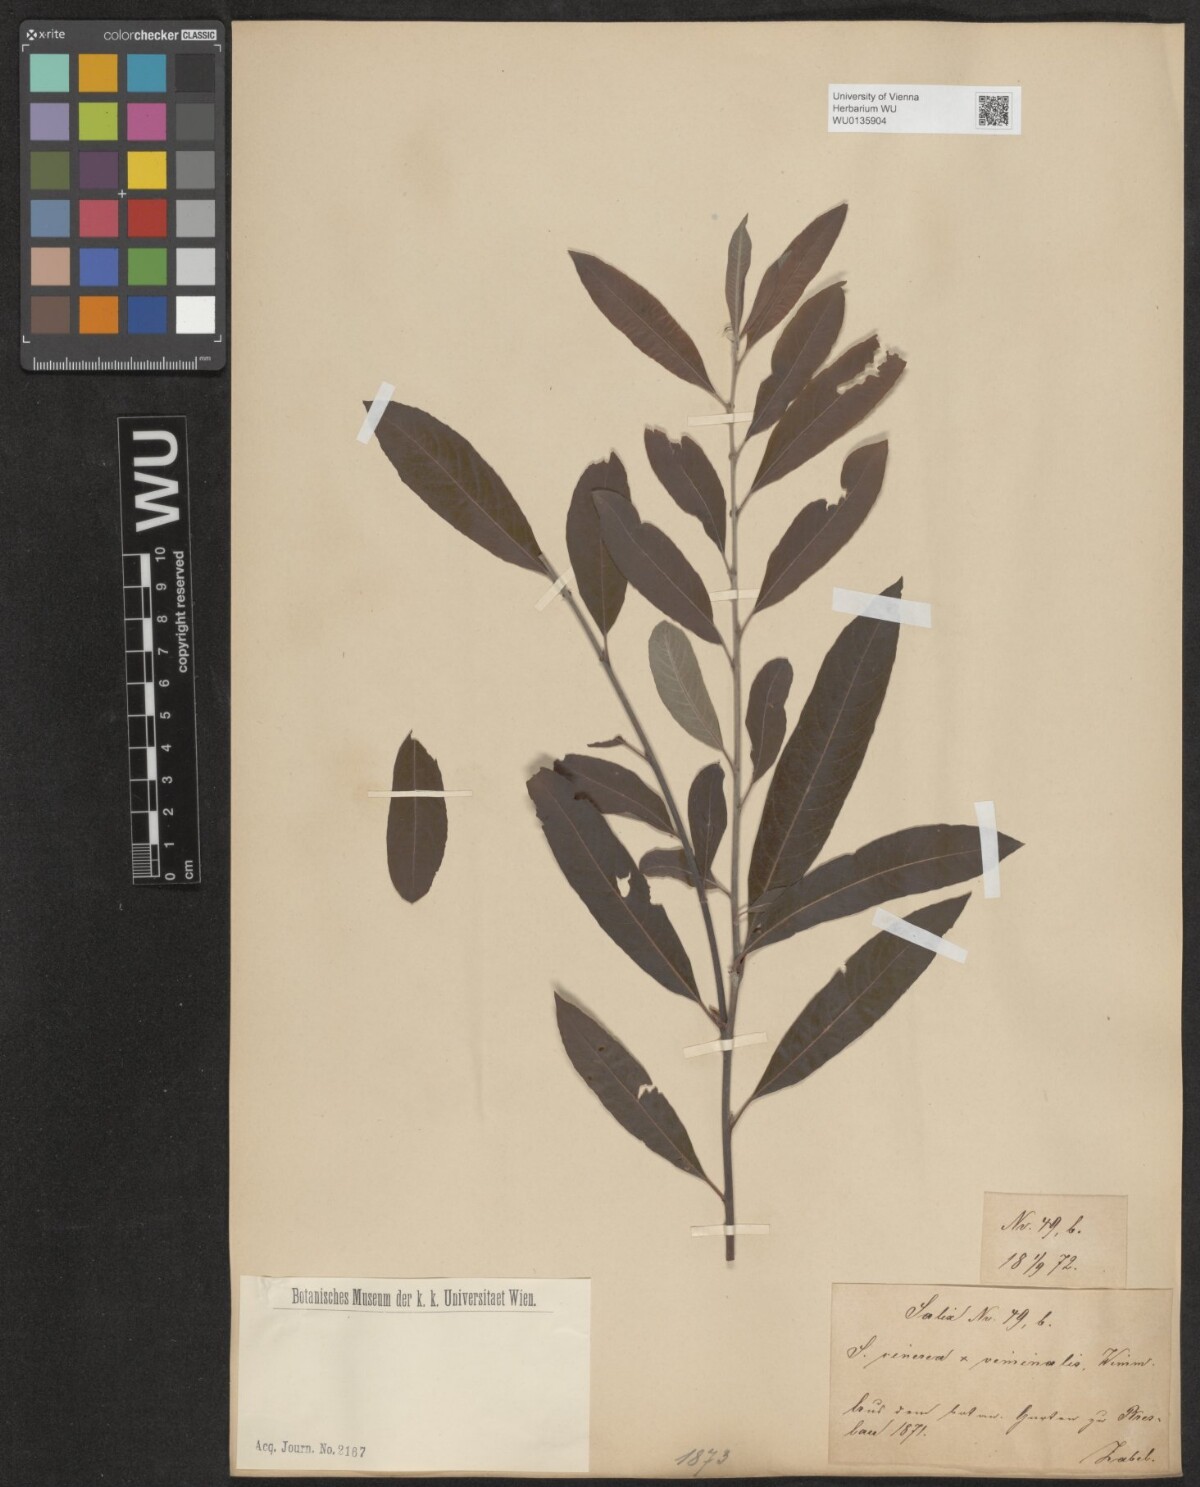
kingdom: Plantae
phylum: Tracheophyta
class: Magnoliopsida
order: Malpighiales
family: Salicaceae
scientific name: Salicaceae
